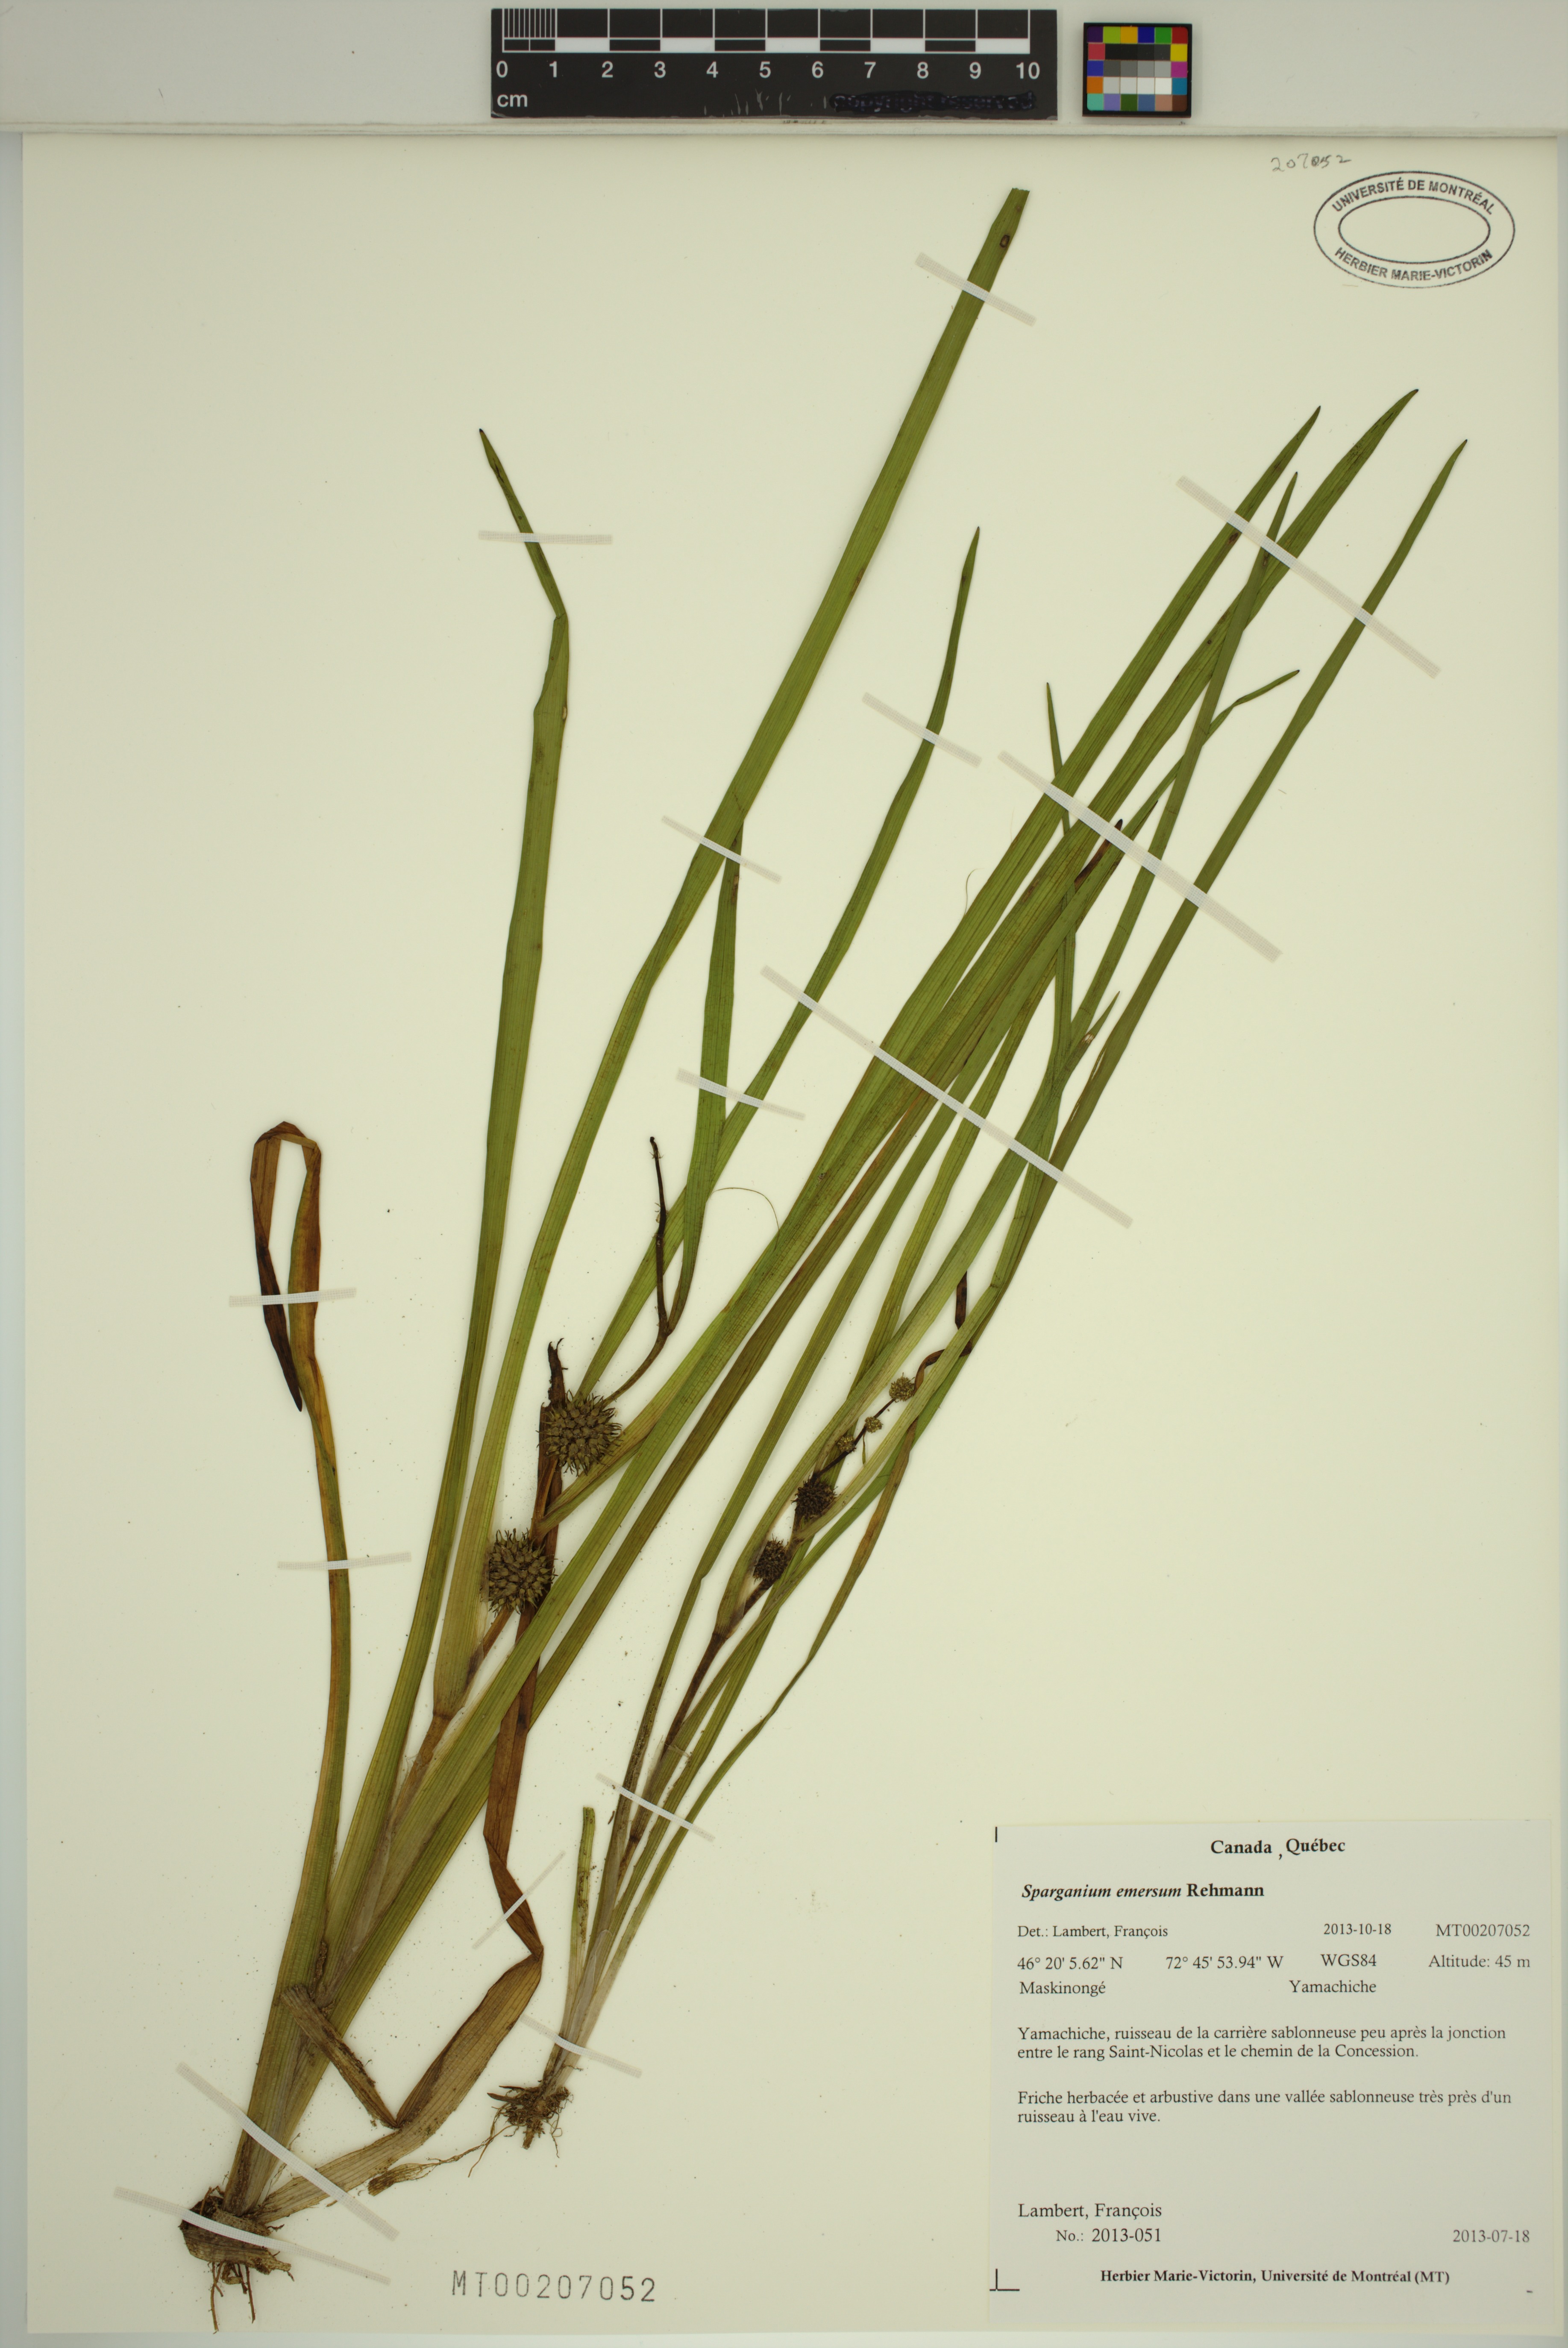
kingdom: Plantae
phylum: Tracheophyta
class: Liliopsida
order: Poales
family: Typhaceae
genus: Sparganium
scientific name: Sparganium emersum
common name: Unbranched bur-reed
